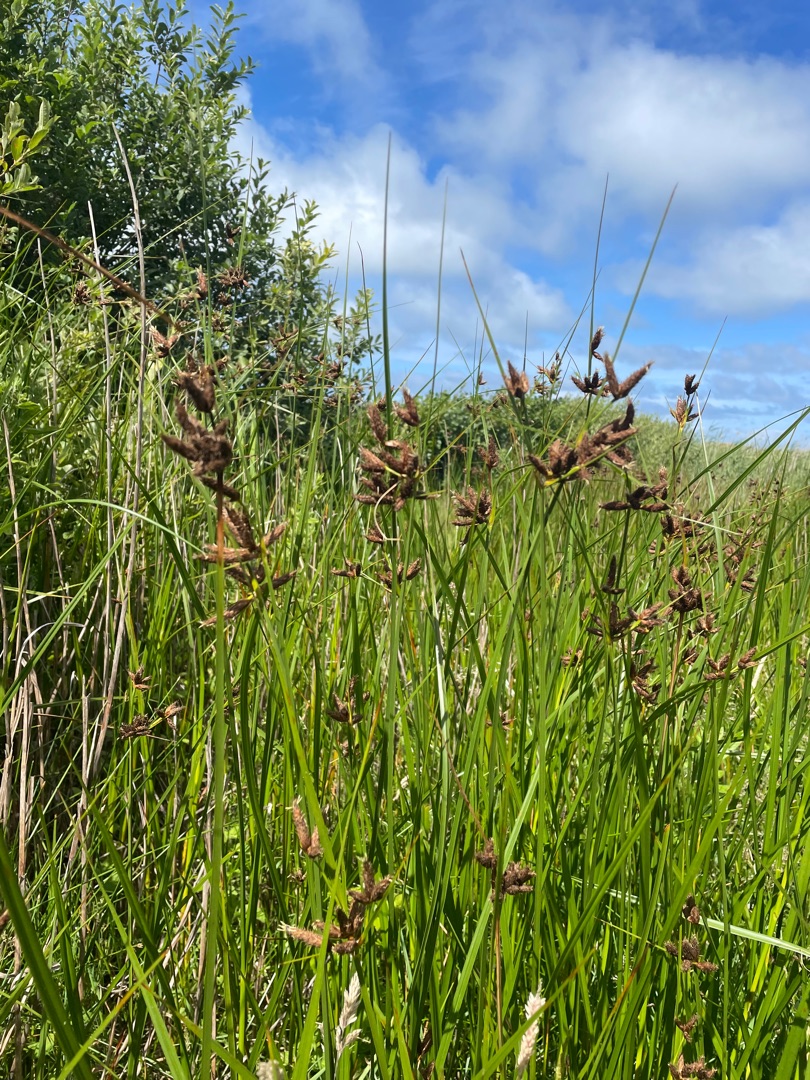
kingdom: Plantae
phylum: Tracheophyta
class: Liliopsida
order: Poales
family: Cyperaceae
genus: Bolboschoenus
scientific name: Bolboschoenus maritimus
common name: Strand-kogleaks
